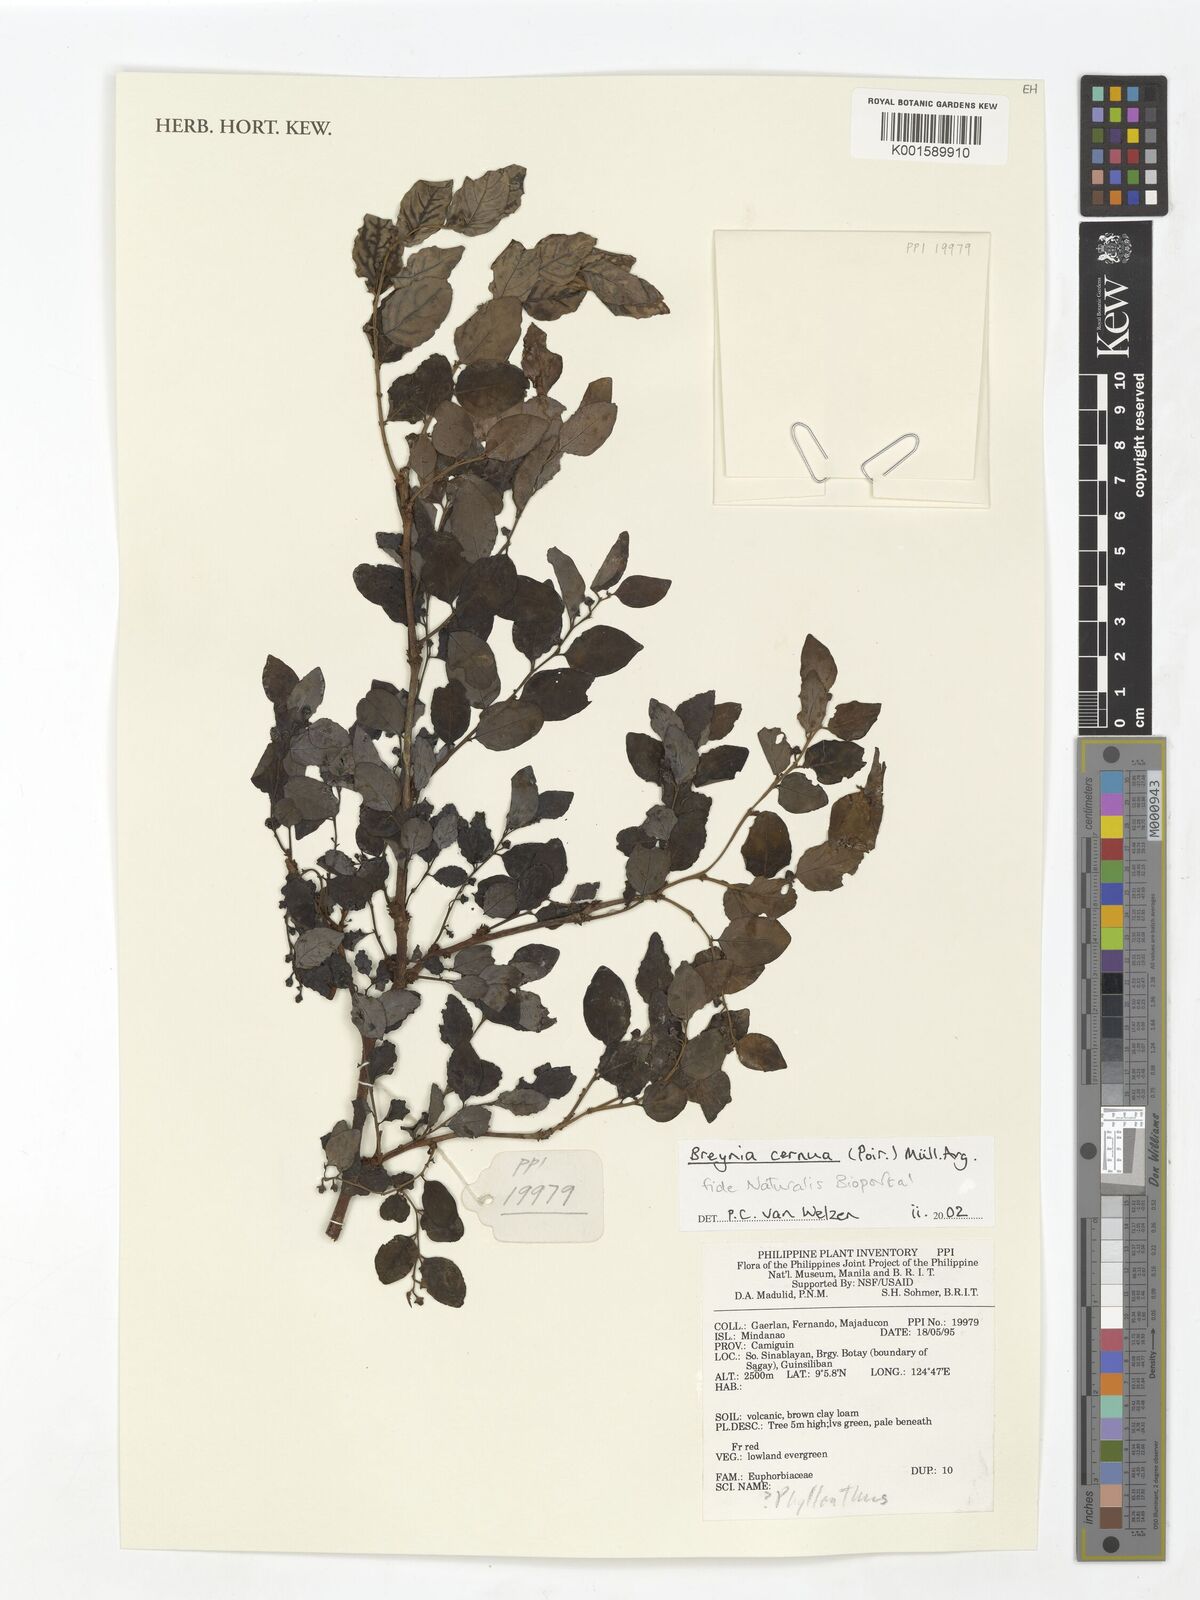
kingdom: Plantae
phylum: Tracheophyta
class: Magnoliopsida
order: Malpighiales
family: Phyllanthaceae
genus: Breynia
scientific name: Breynia cernua
